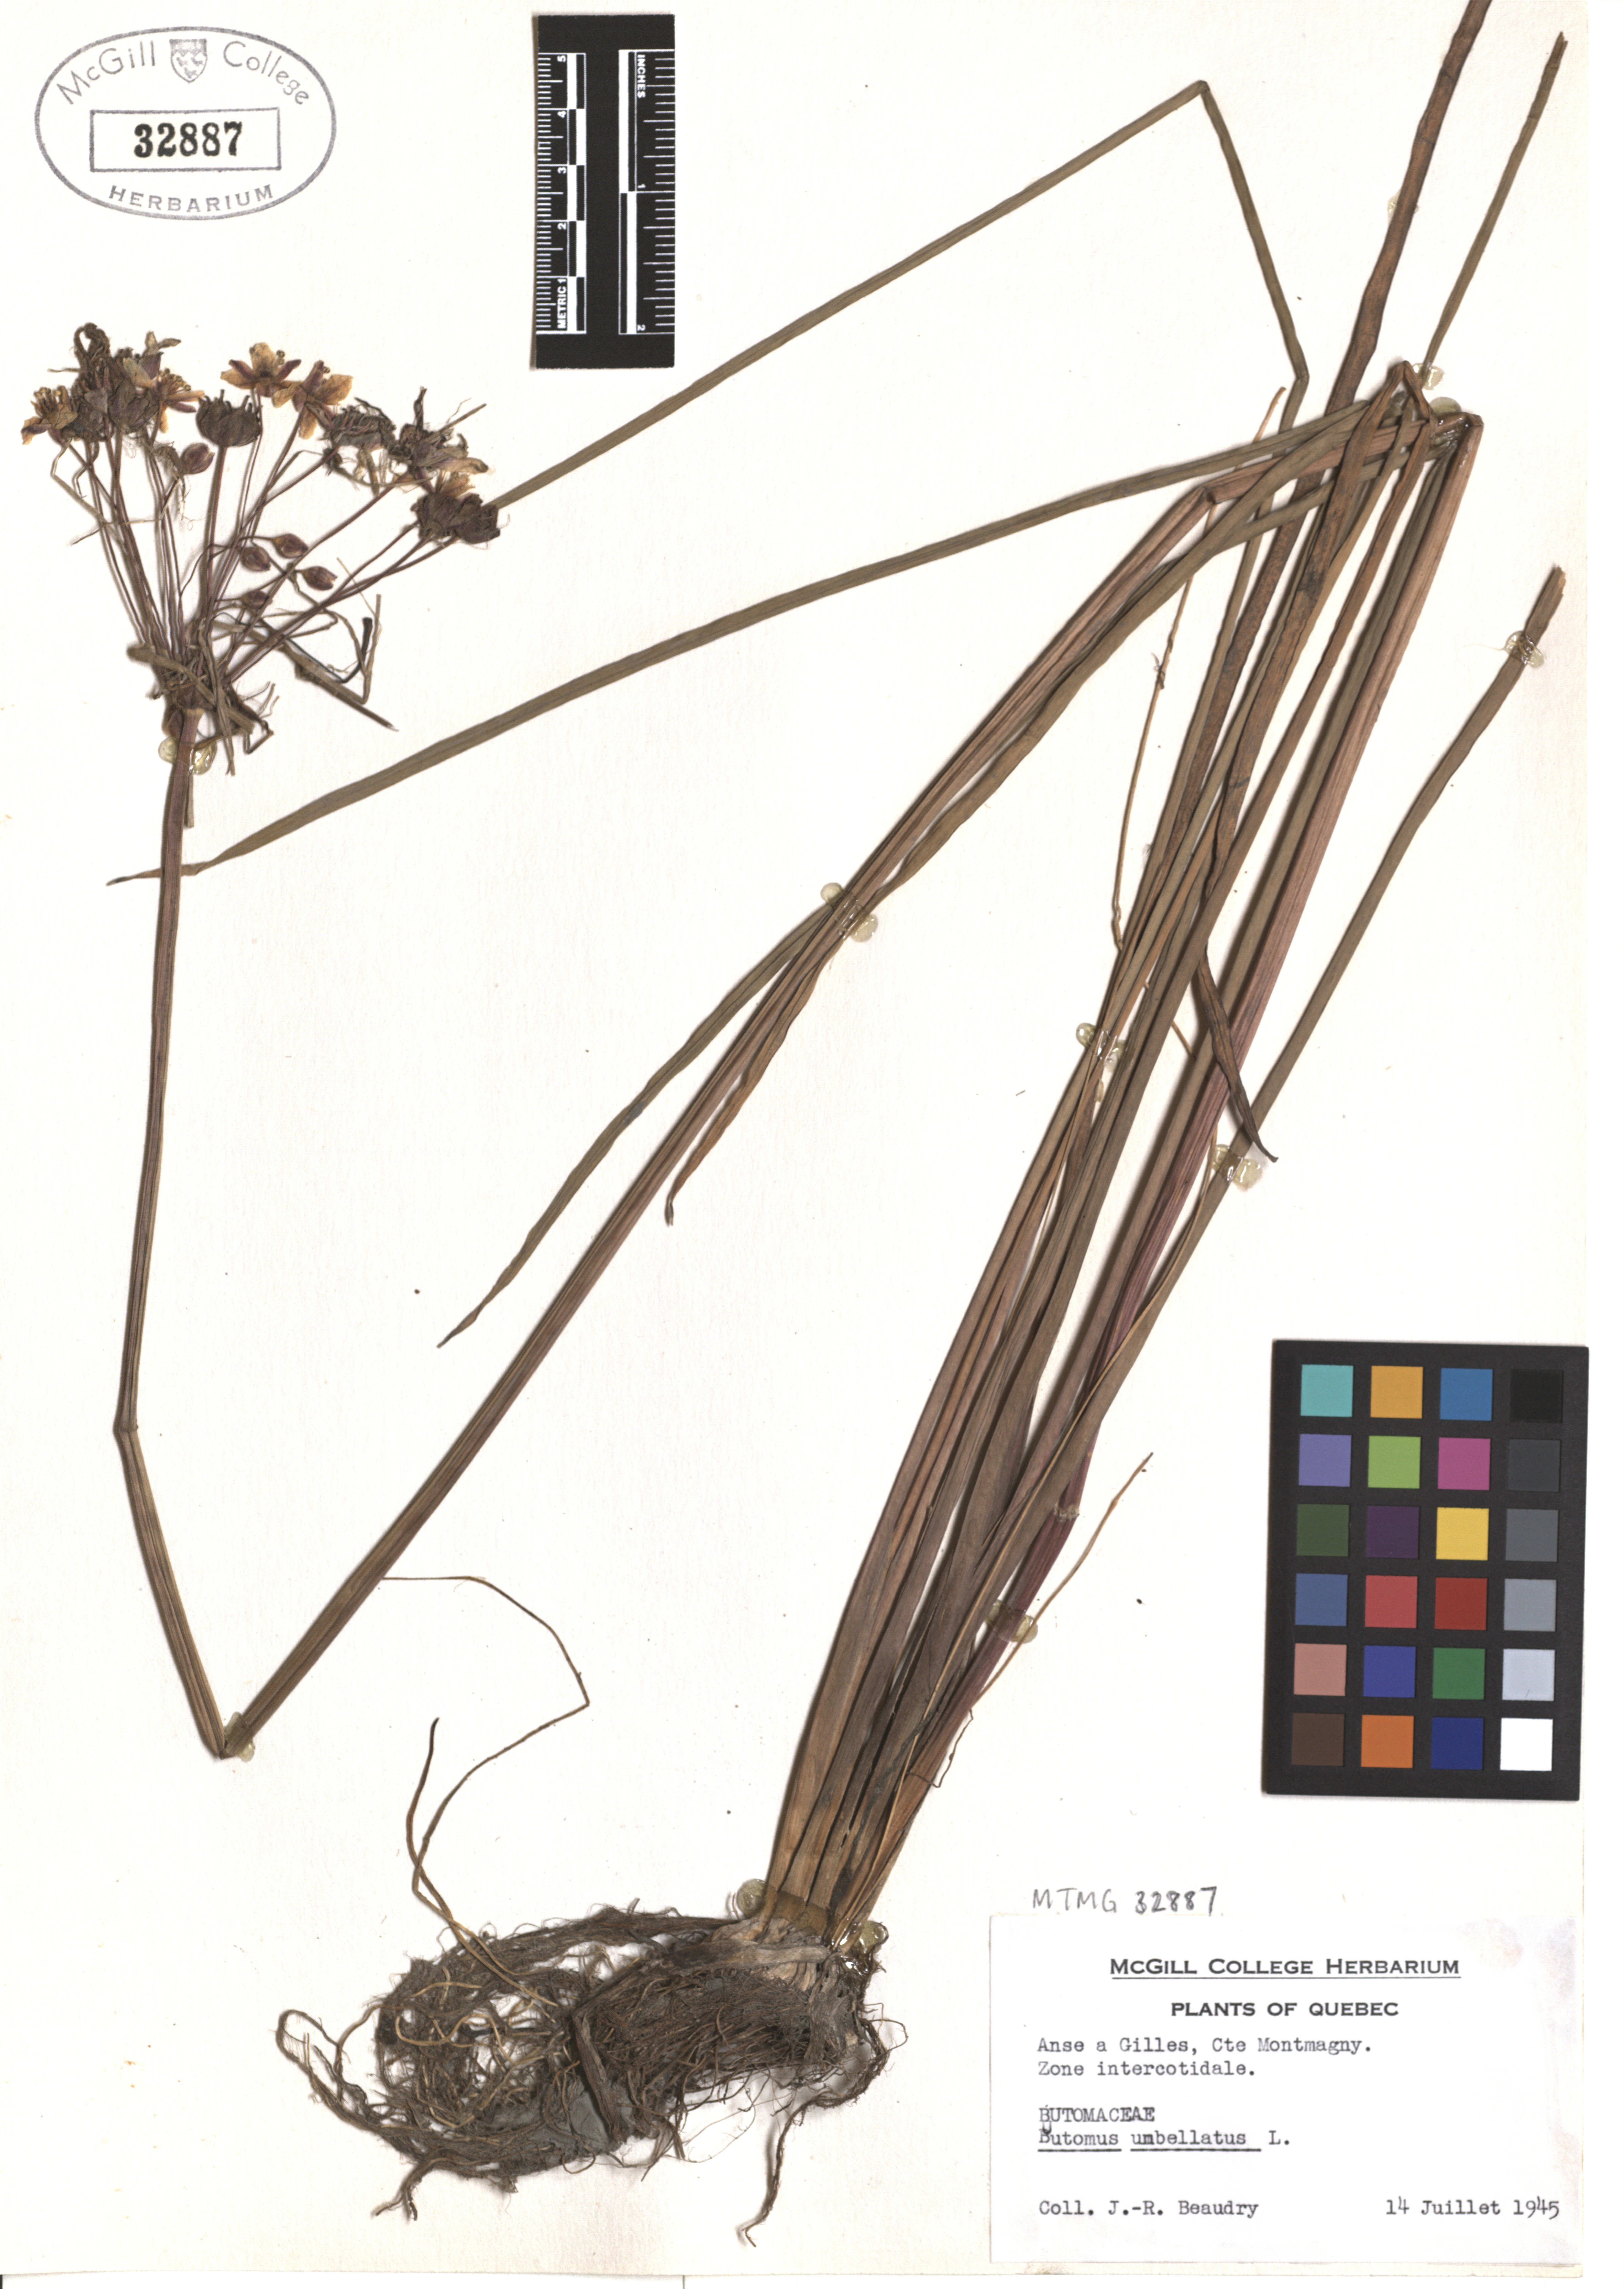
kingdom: Plantae
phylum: Tracheophyta
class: Liliopsida
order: Alismatales
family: Butomaceae
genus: Butomus
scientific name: Butomus umbellatus
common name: Flowering-rush
